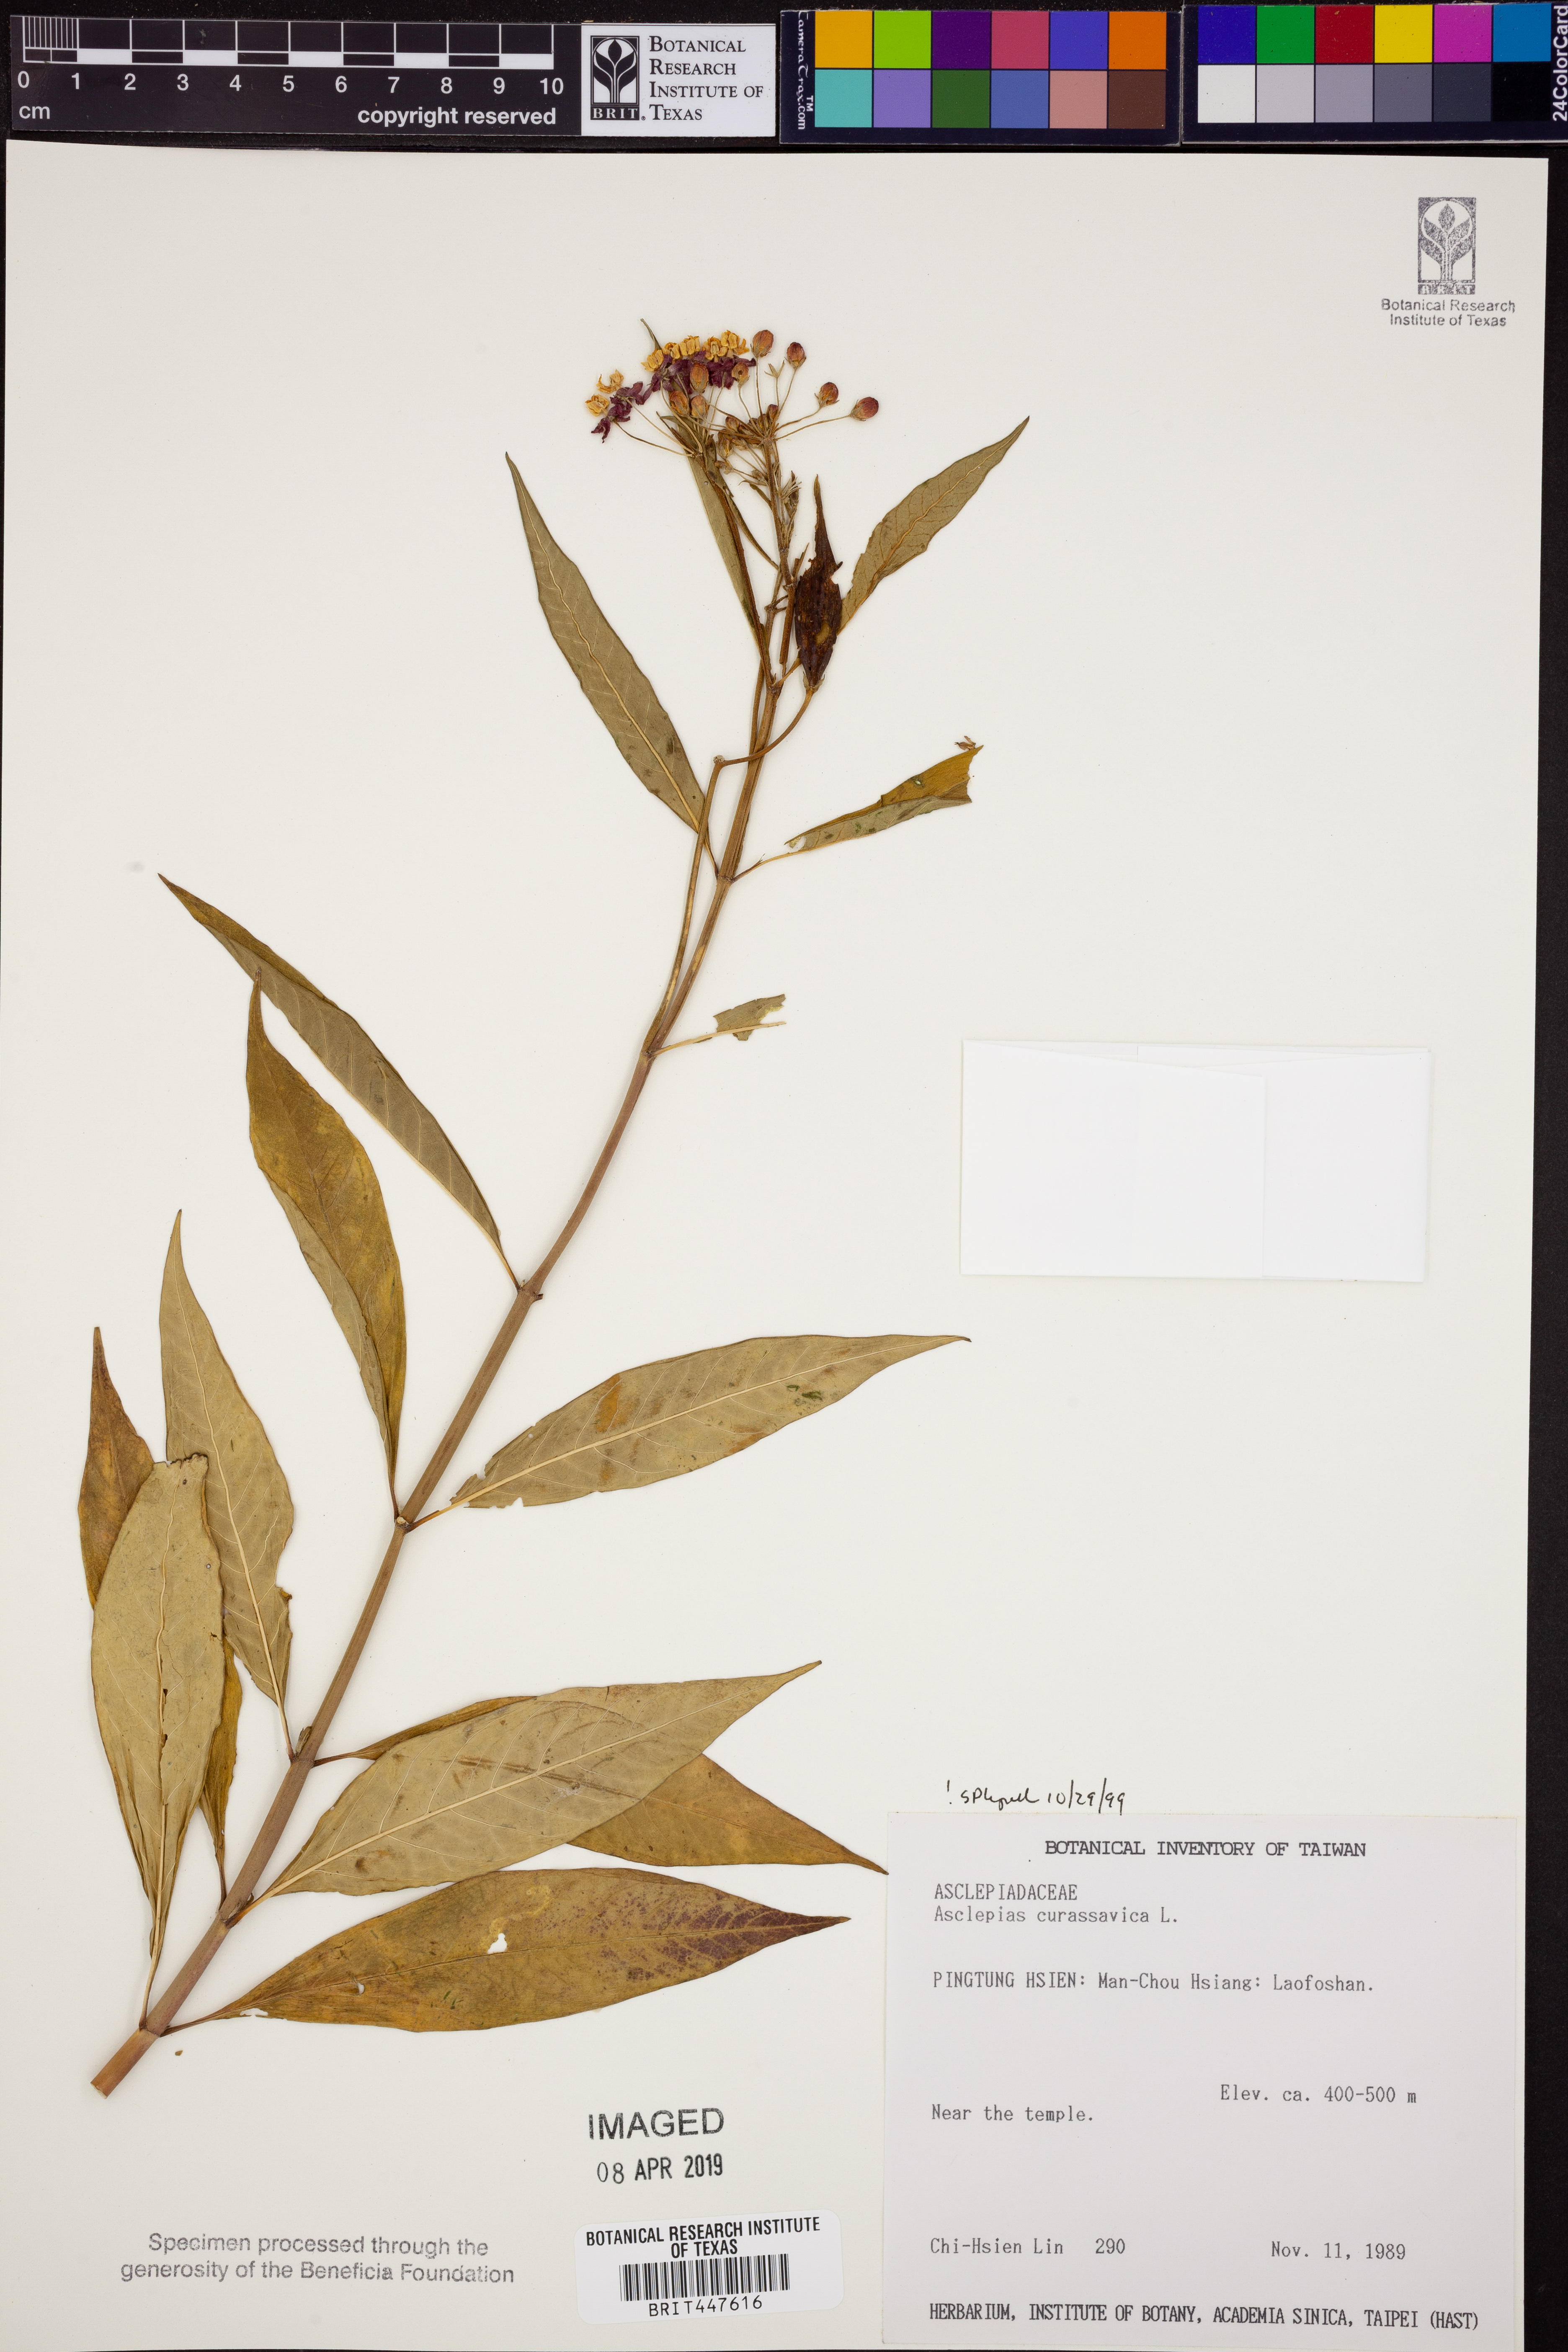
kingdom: Plantae
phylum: Tracheophyta
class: Magnoliopsida
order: Gentianales
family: Apocynaceae
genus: Asclepias
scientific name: Asclepias curassavica
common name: Bloodflower
